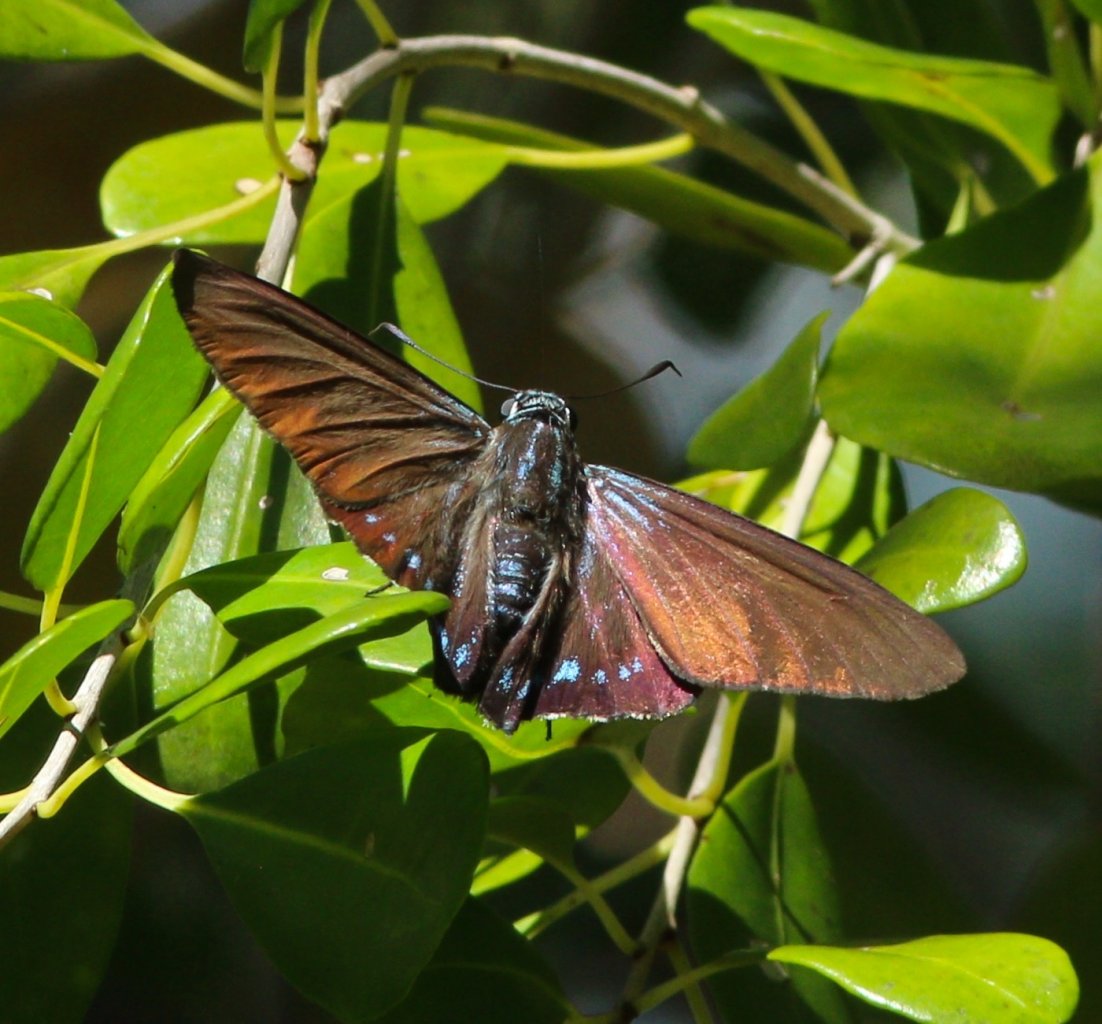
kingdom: Animalia
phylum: Arthropoda
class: Insecta
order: Lepidoptera
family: Hesperiidae
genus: Phocides
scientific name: Phocides pigmalion
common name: Mangrove Skipper
